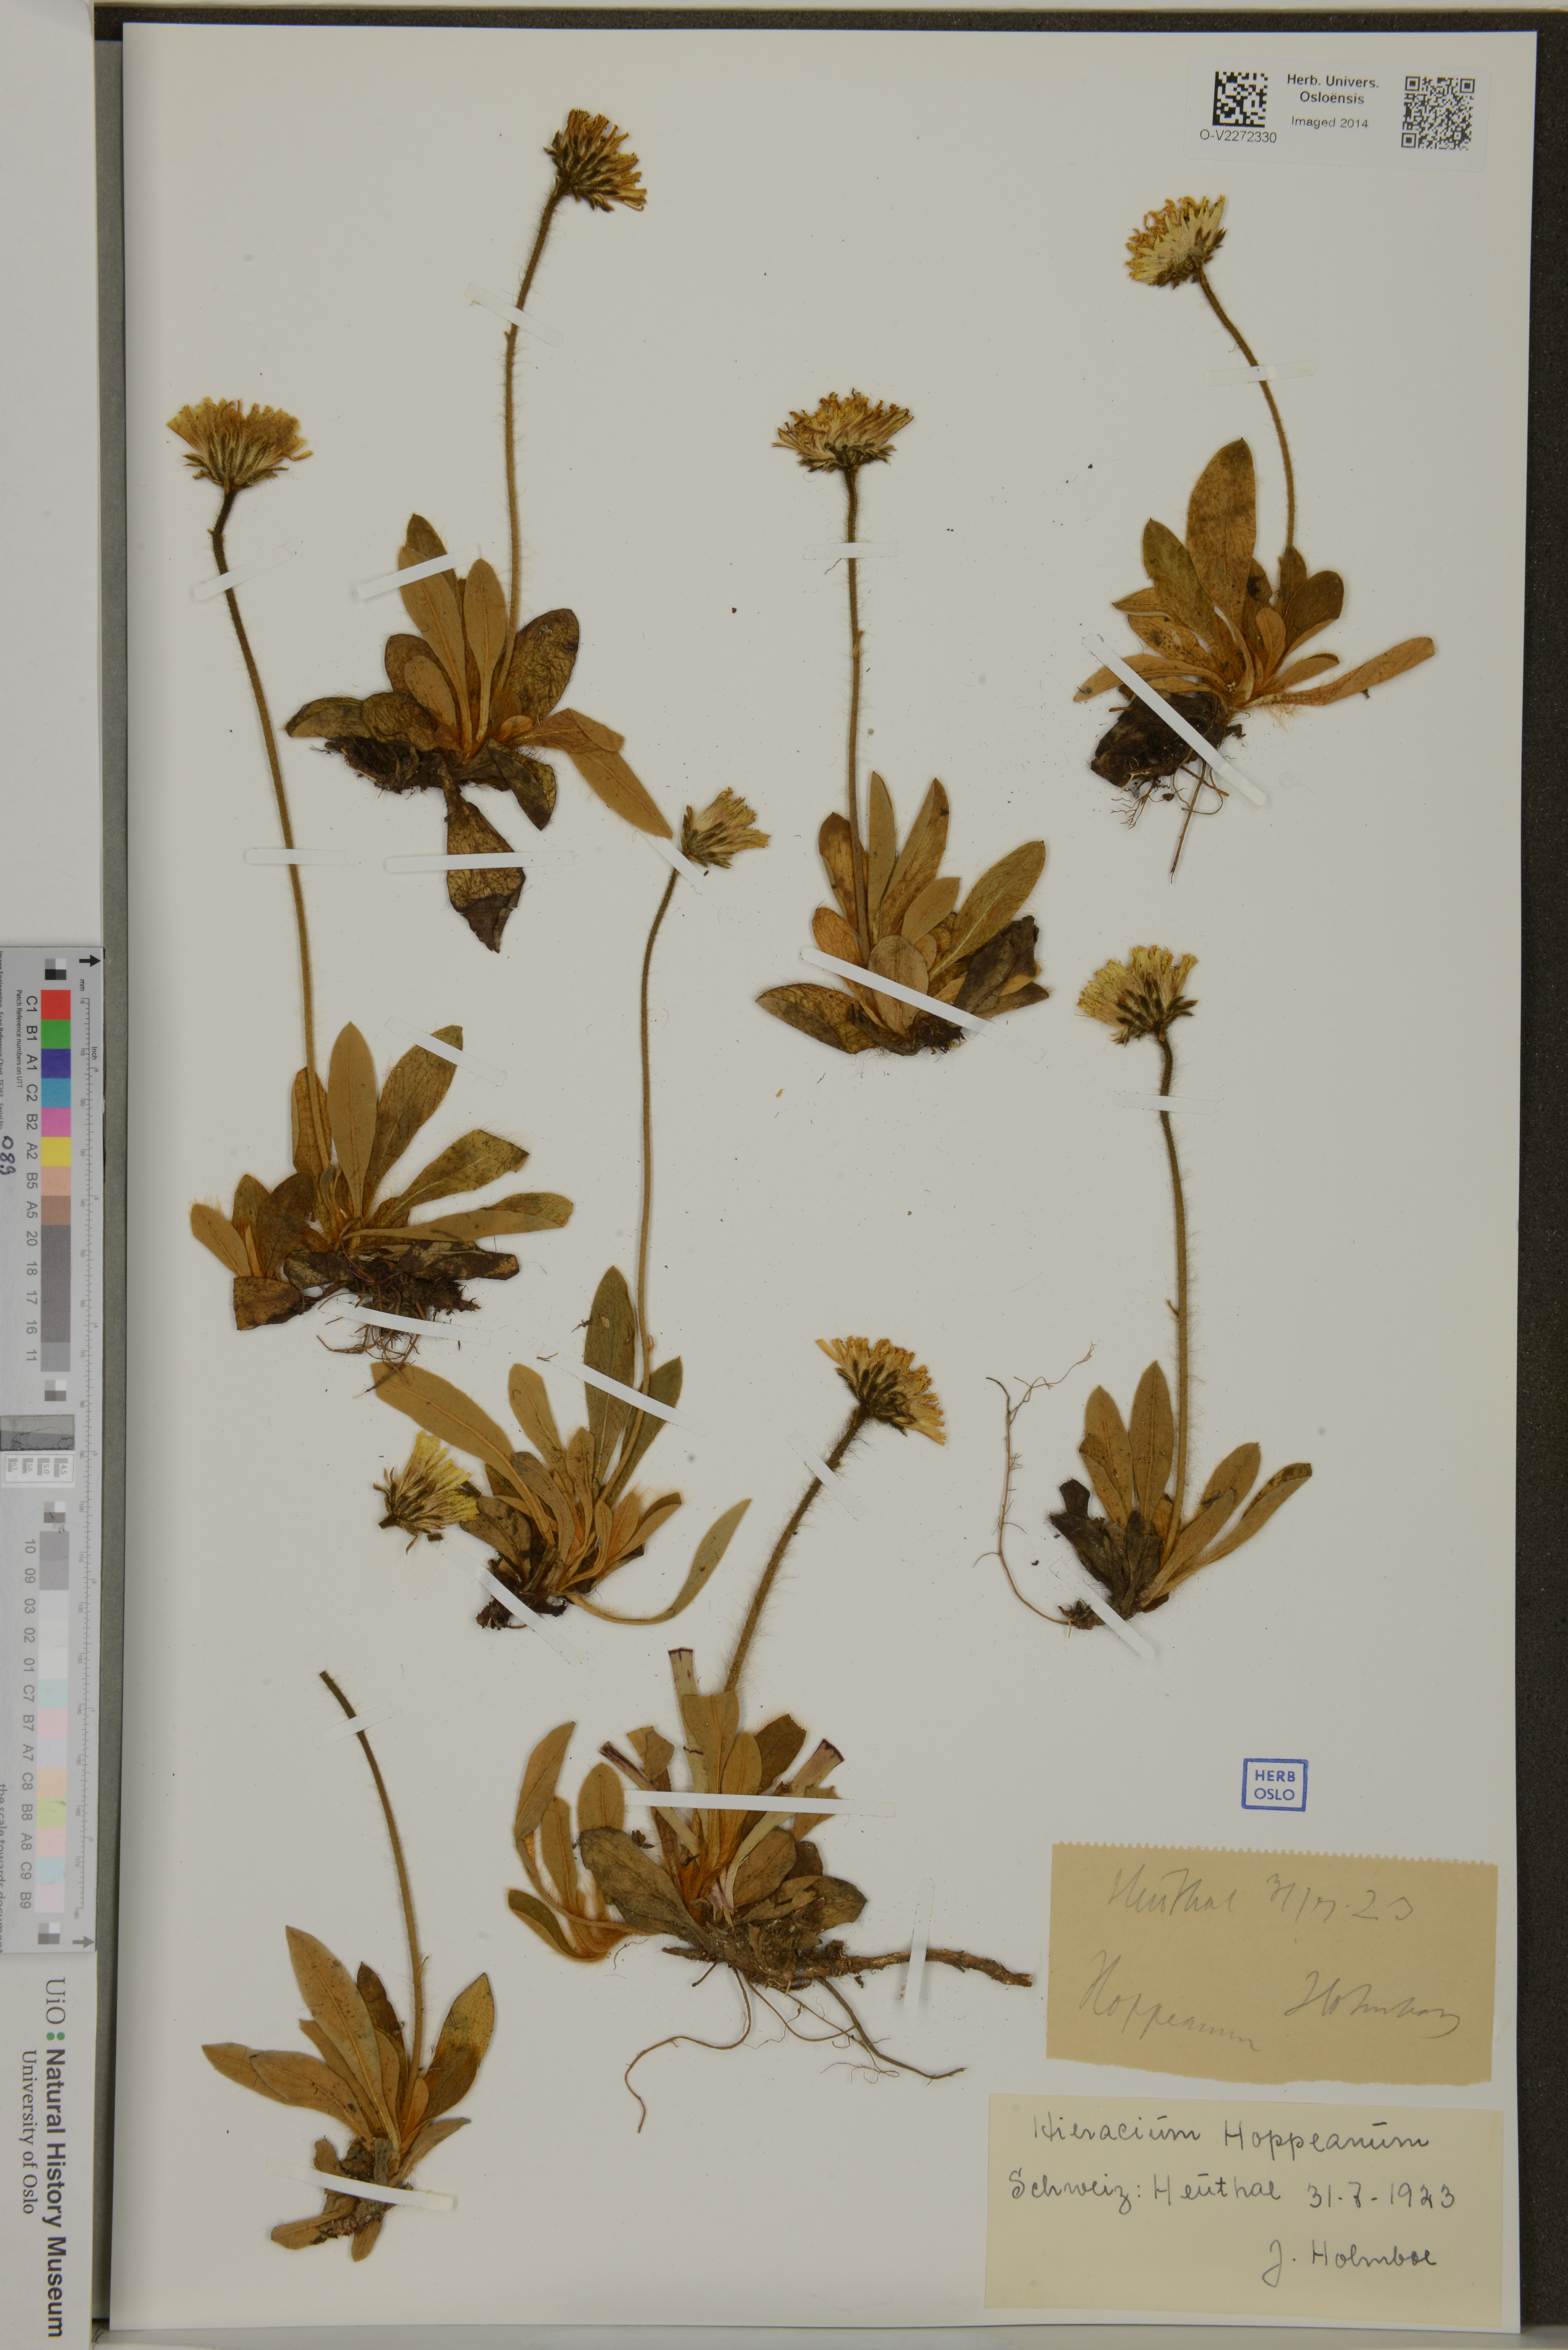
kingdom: Plantae
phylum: Tracheophyta
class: Magnoliopsida
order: Asterales
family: Asteraceae
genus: Hieracium
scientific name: Hieracium hoppeanum
